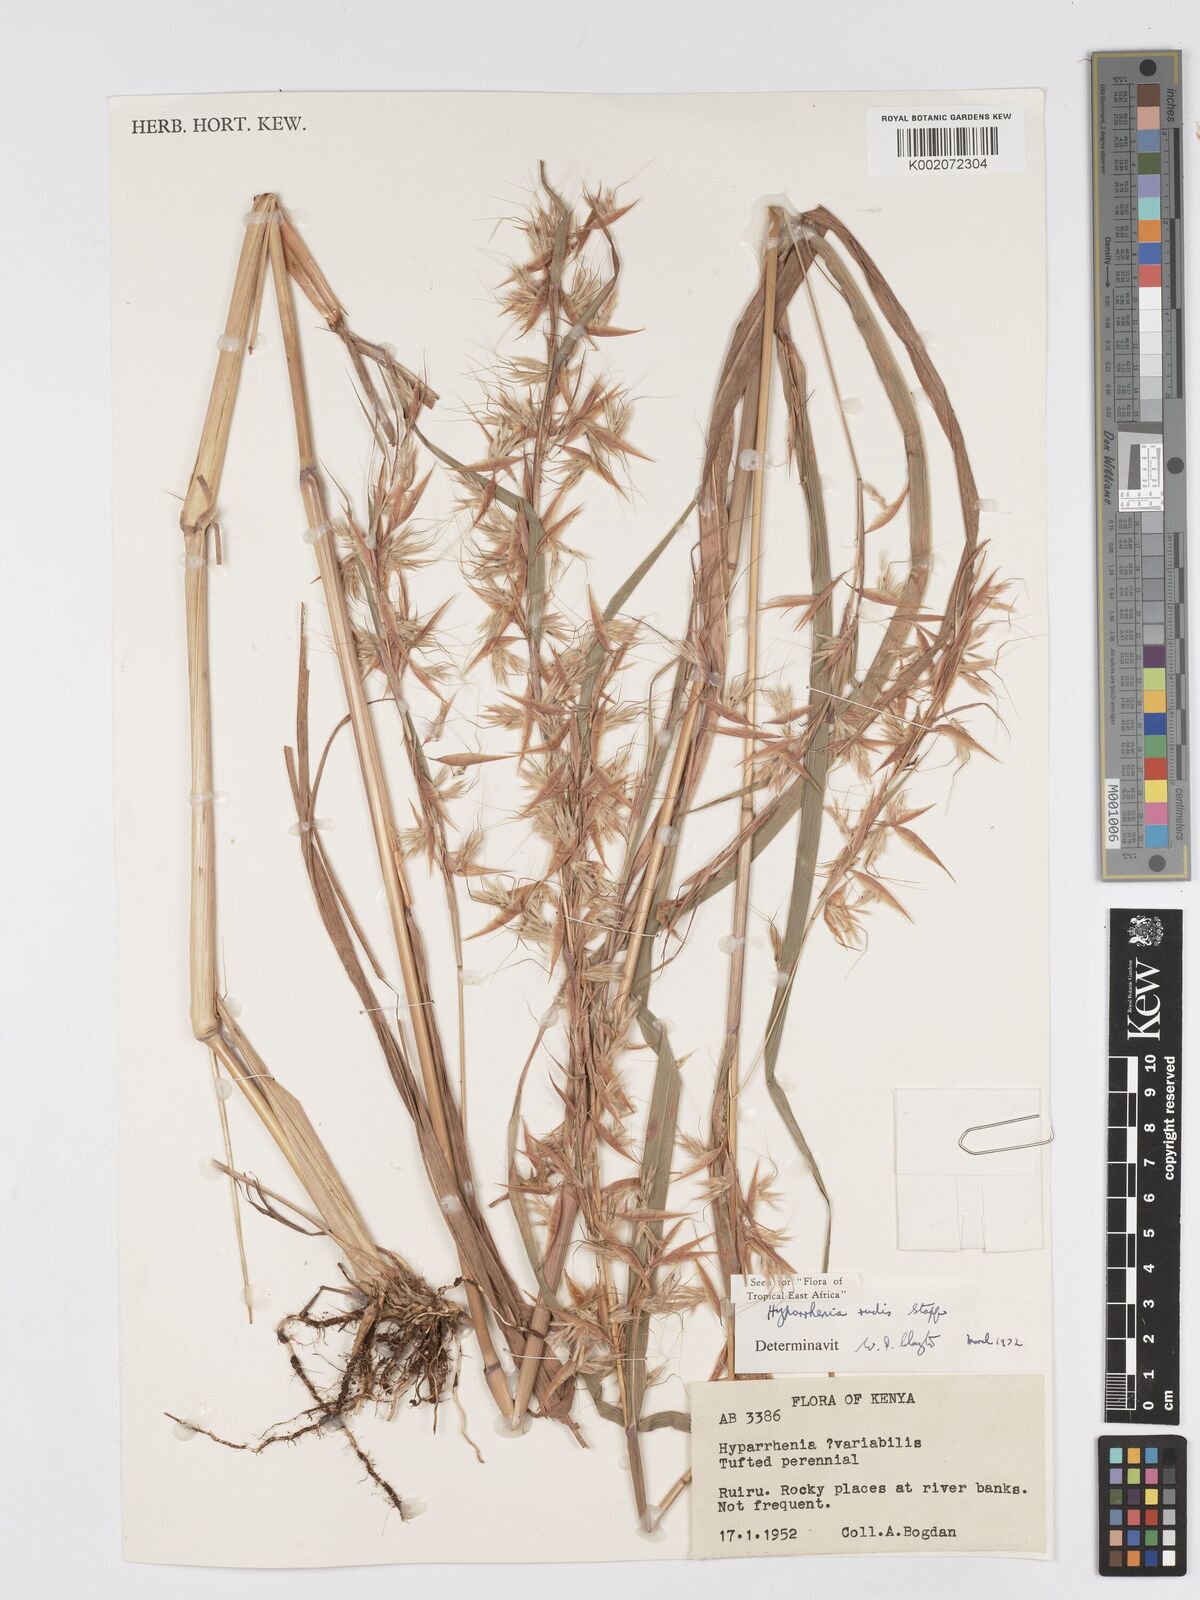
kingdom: Plantae
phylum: Tracheophyta
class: Liliopsida
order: Poales
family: Poaceae
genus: Hyparrhenia
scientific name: Hyparrhenia rudis
